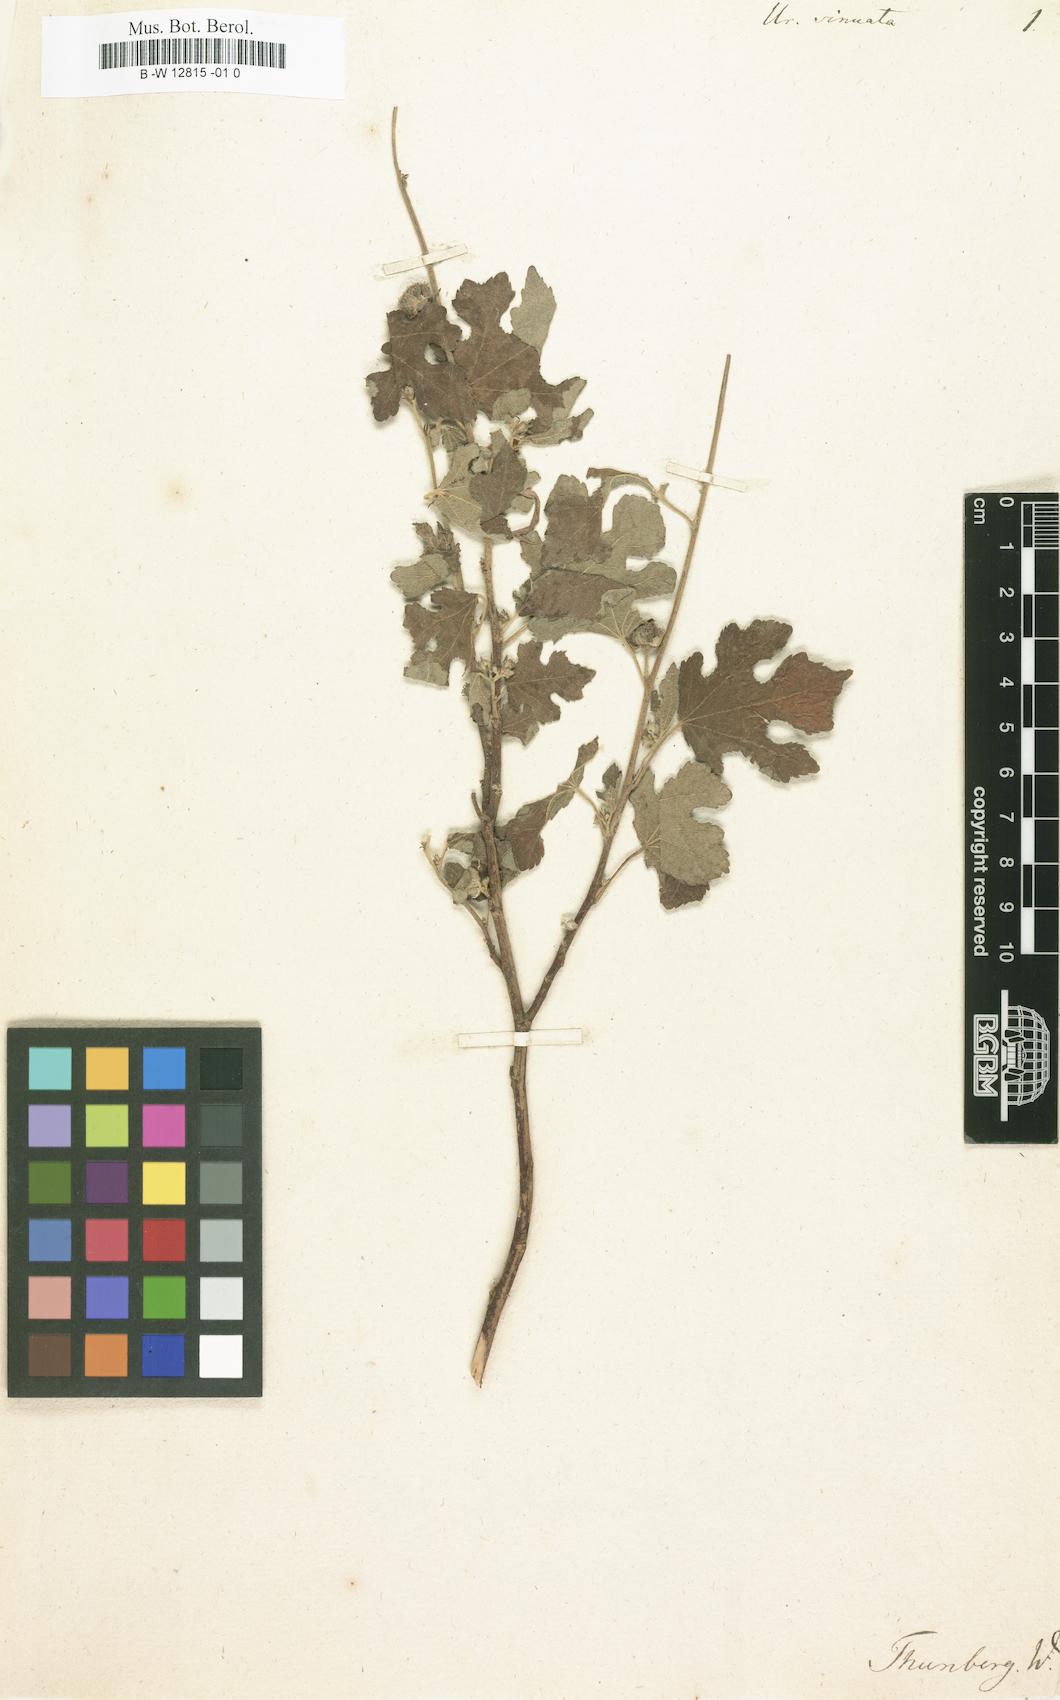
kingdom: Plantae
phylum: Tracheophyta
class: Magnoliopsida
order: Malvales
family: Malvaceae
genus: Urena
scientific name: Urena
